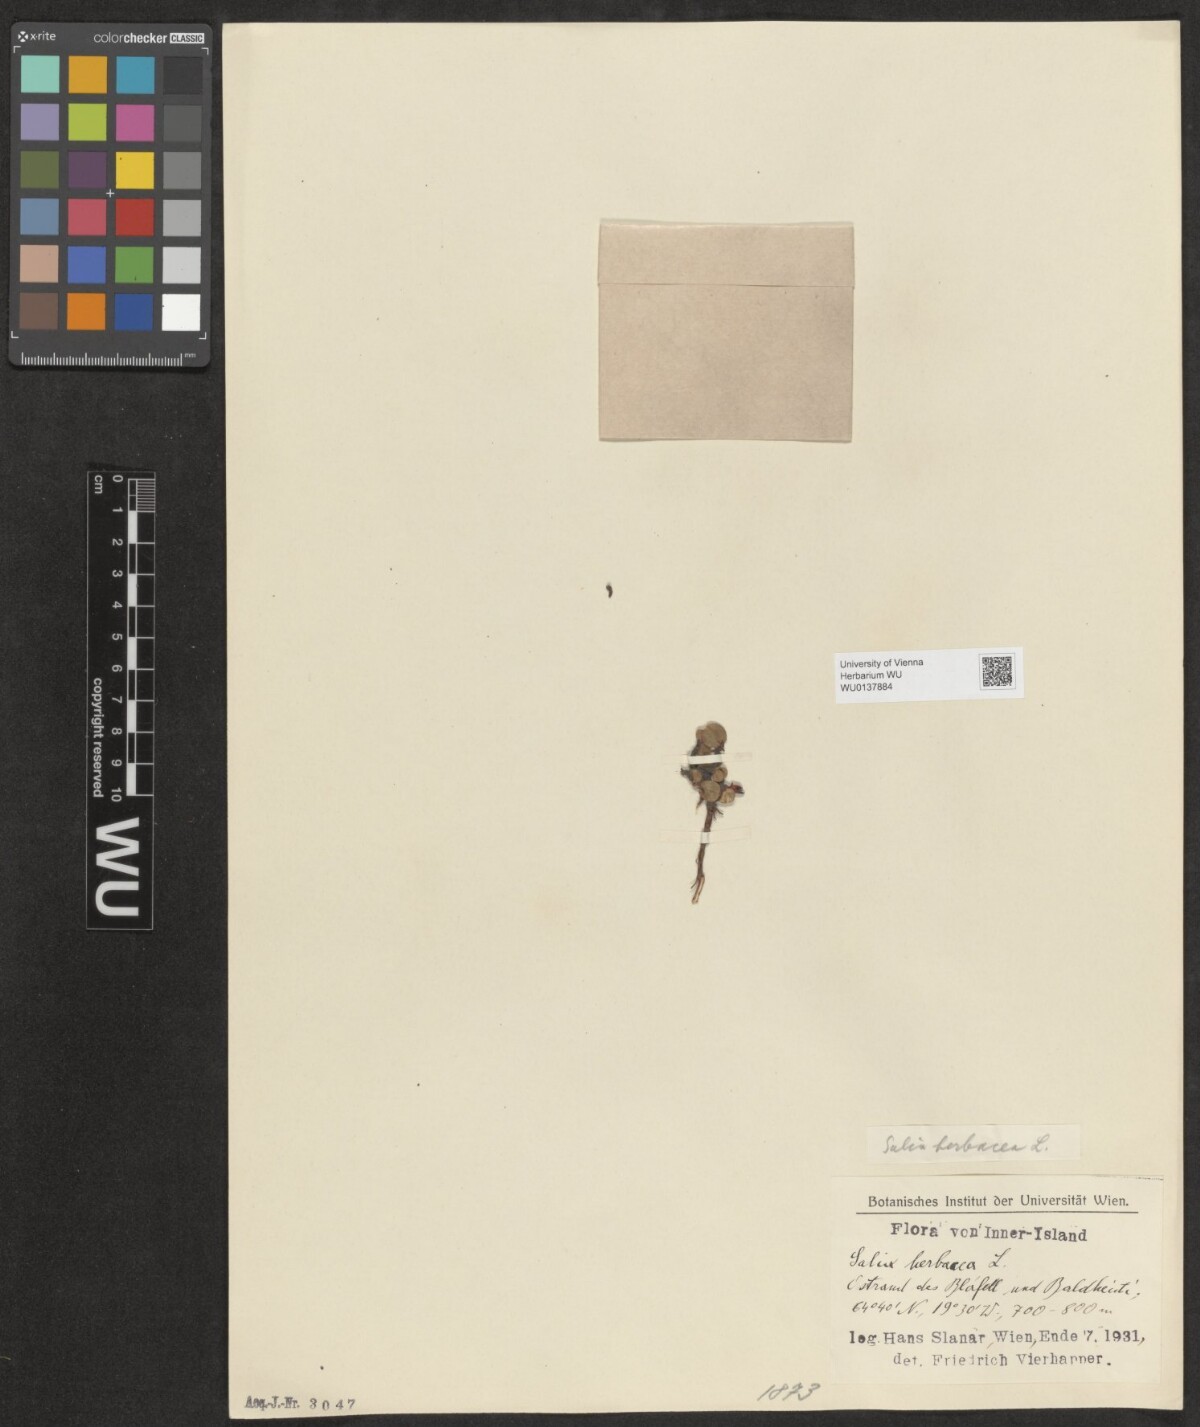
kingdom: Plantae
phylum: Tracheophyta
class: Magnoliopsida
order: Malpighiales
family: Salicaceae
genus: Salix
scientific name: Salix herbacea
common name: Dwarf willow
